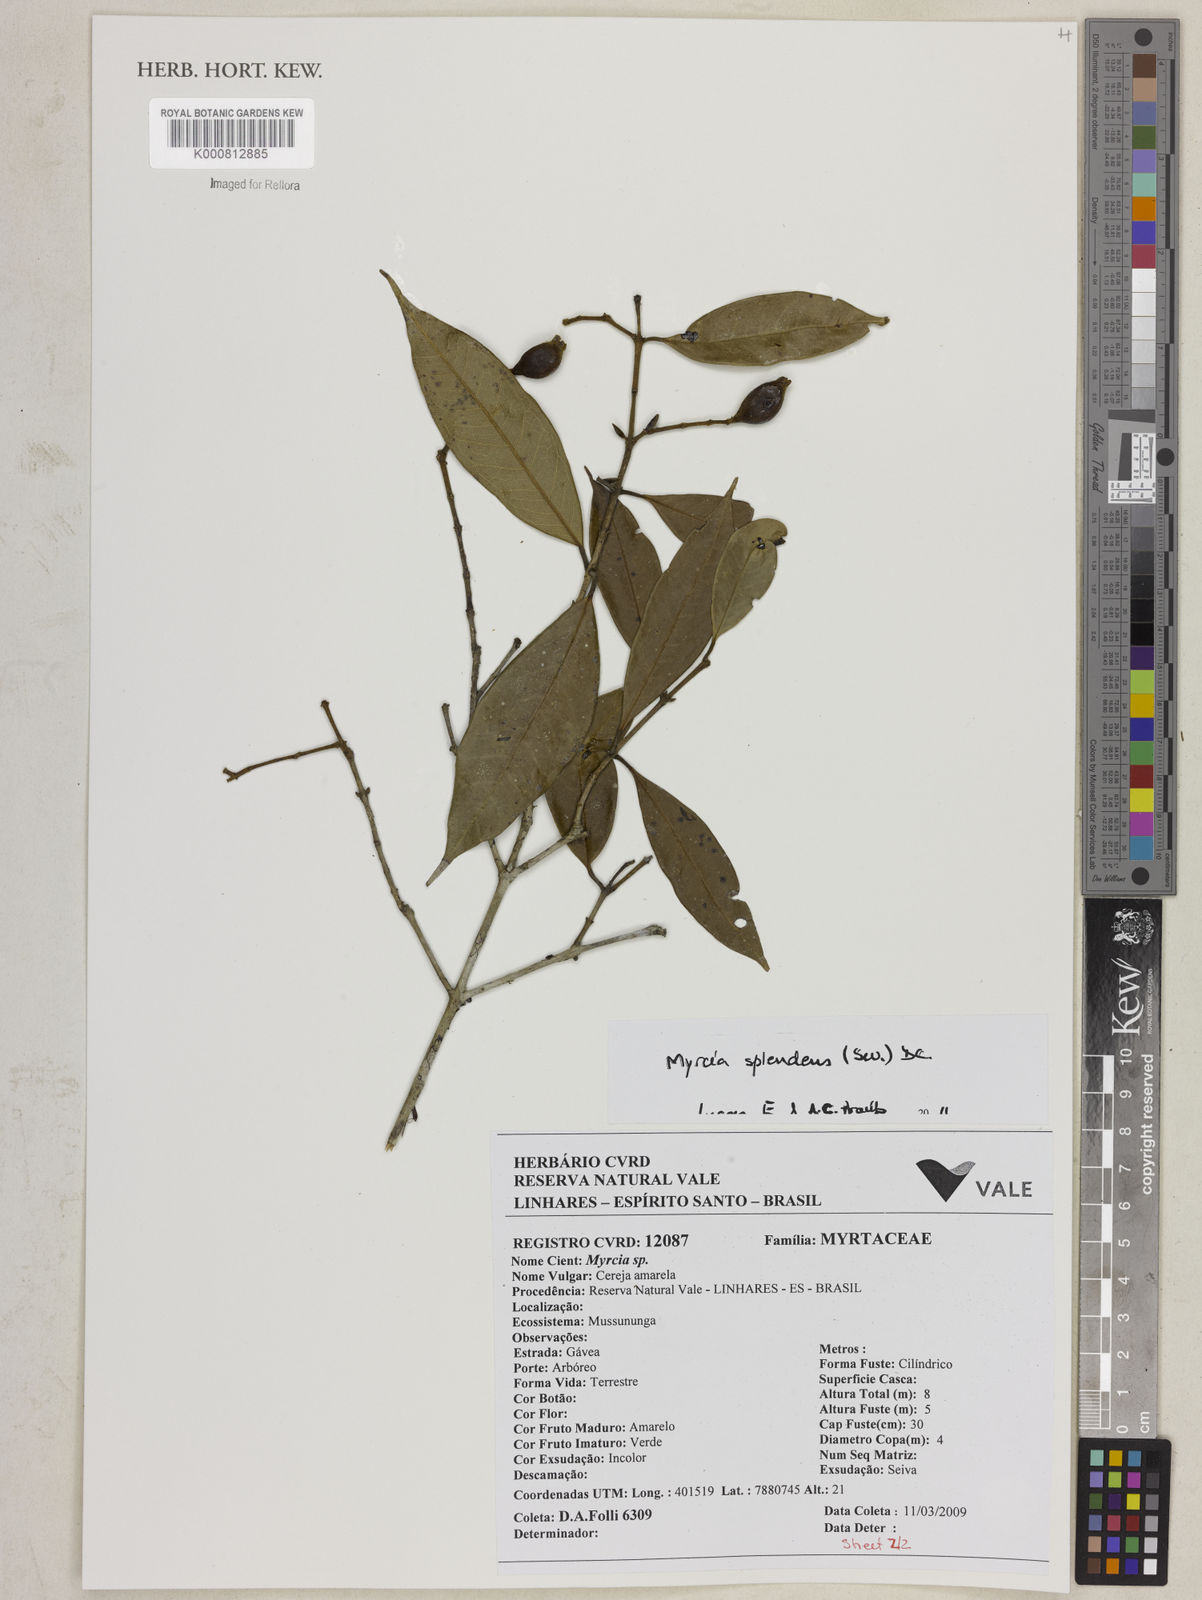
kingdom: Plantae
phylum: Tracheophyta
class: Magnoliopsida
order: Myrtales
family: Myrtaceae
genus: Myrcia
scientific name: Myrcia splendens
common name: Surinam cherry
